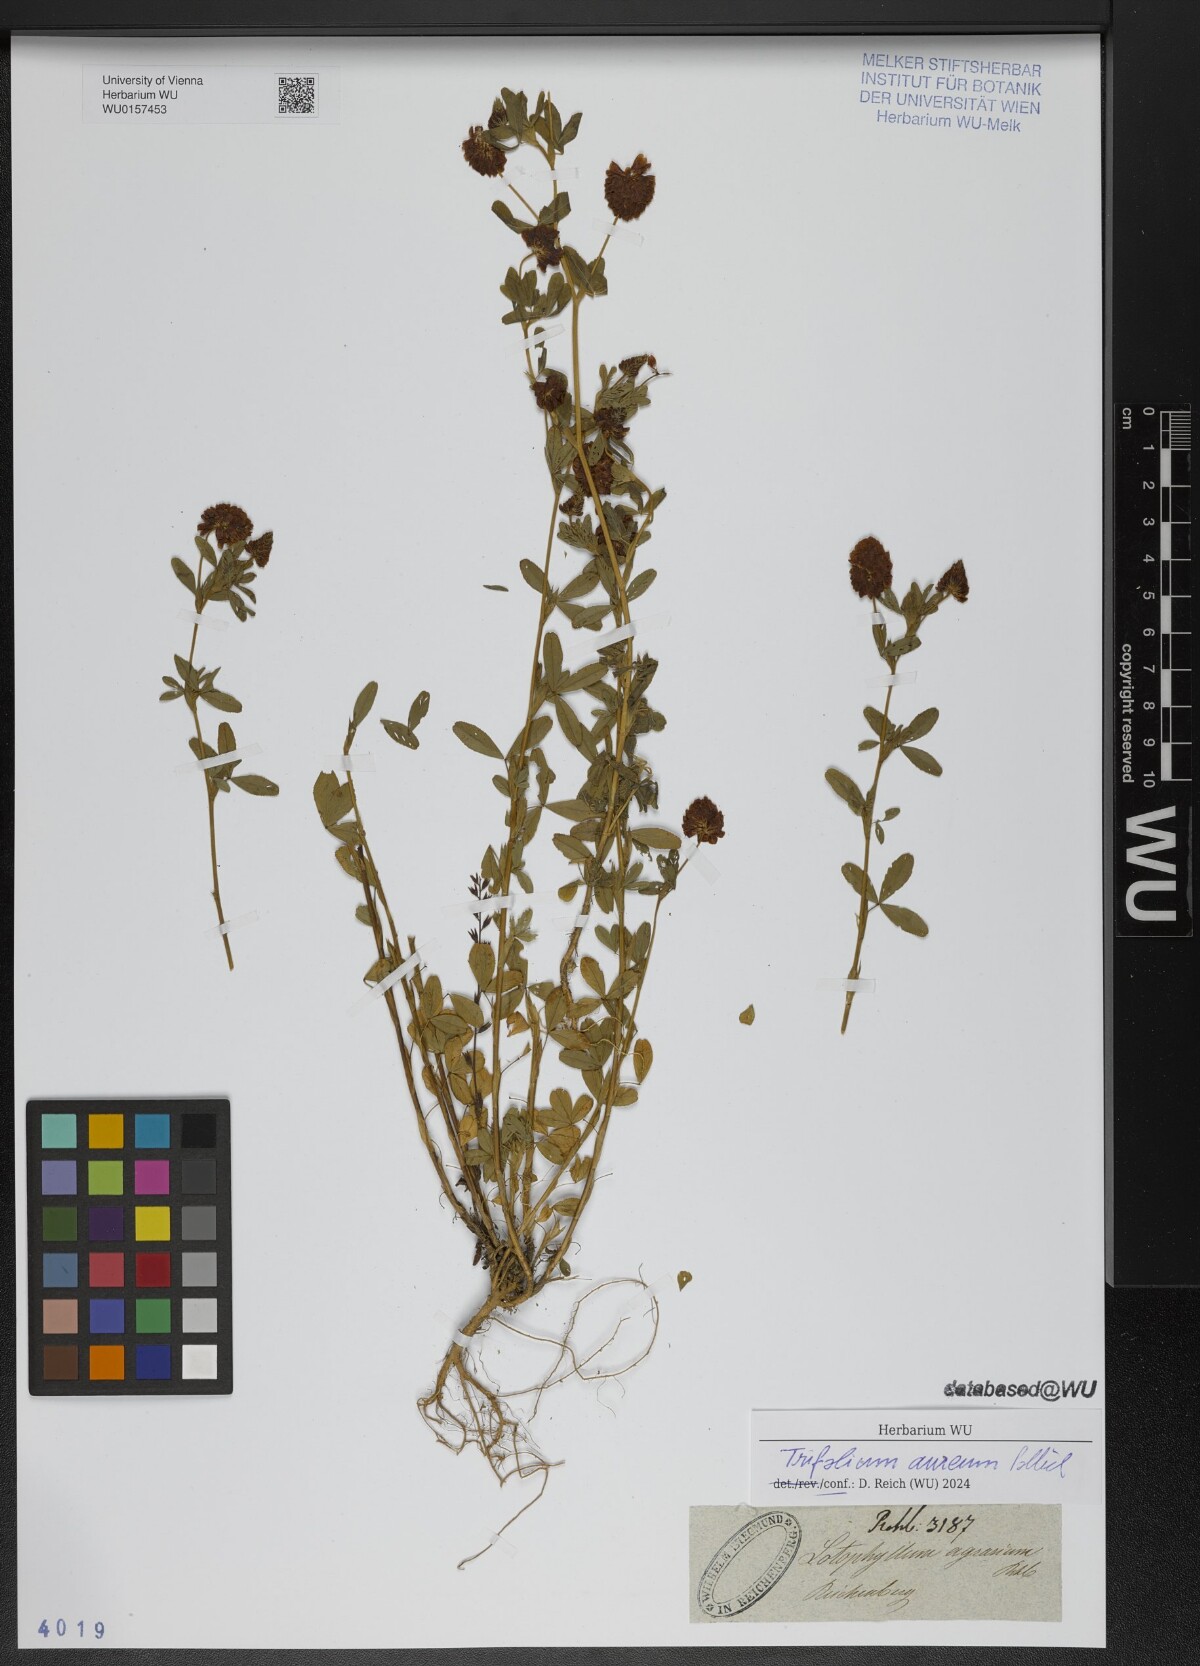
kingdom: Plantae
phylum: Tracheophyta
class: Magnoliopsida
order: Fabales
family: Fabaceae
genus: Trifolium
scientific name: Trifolium aureum
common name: Golden clover
